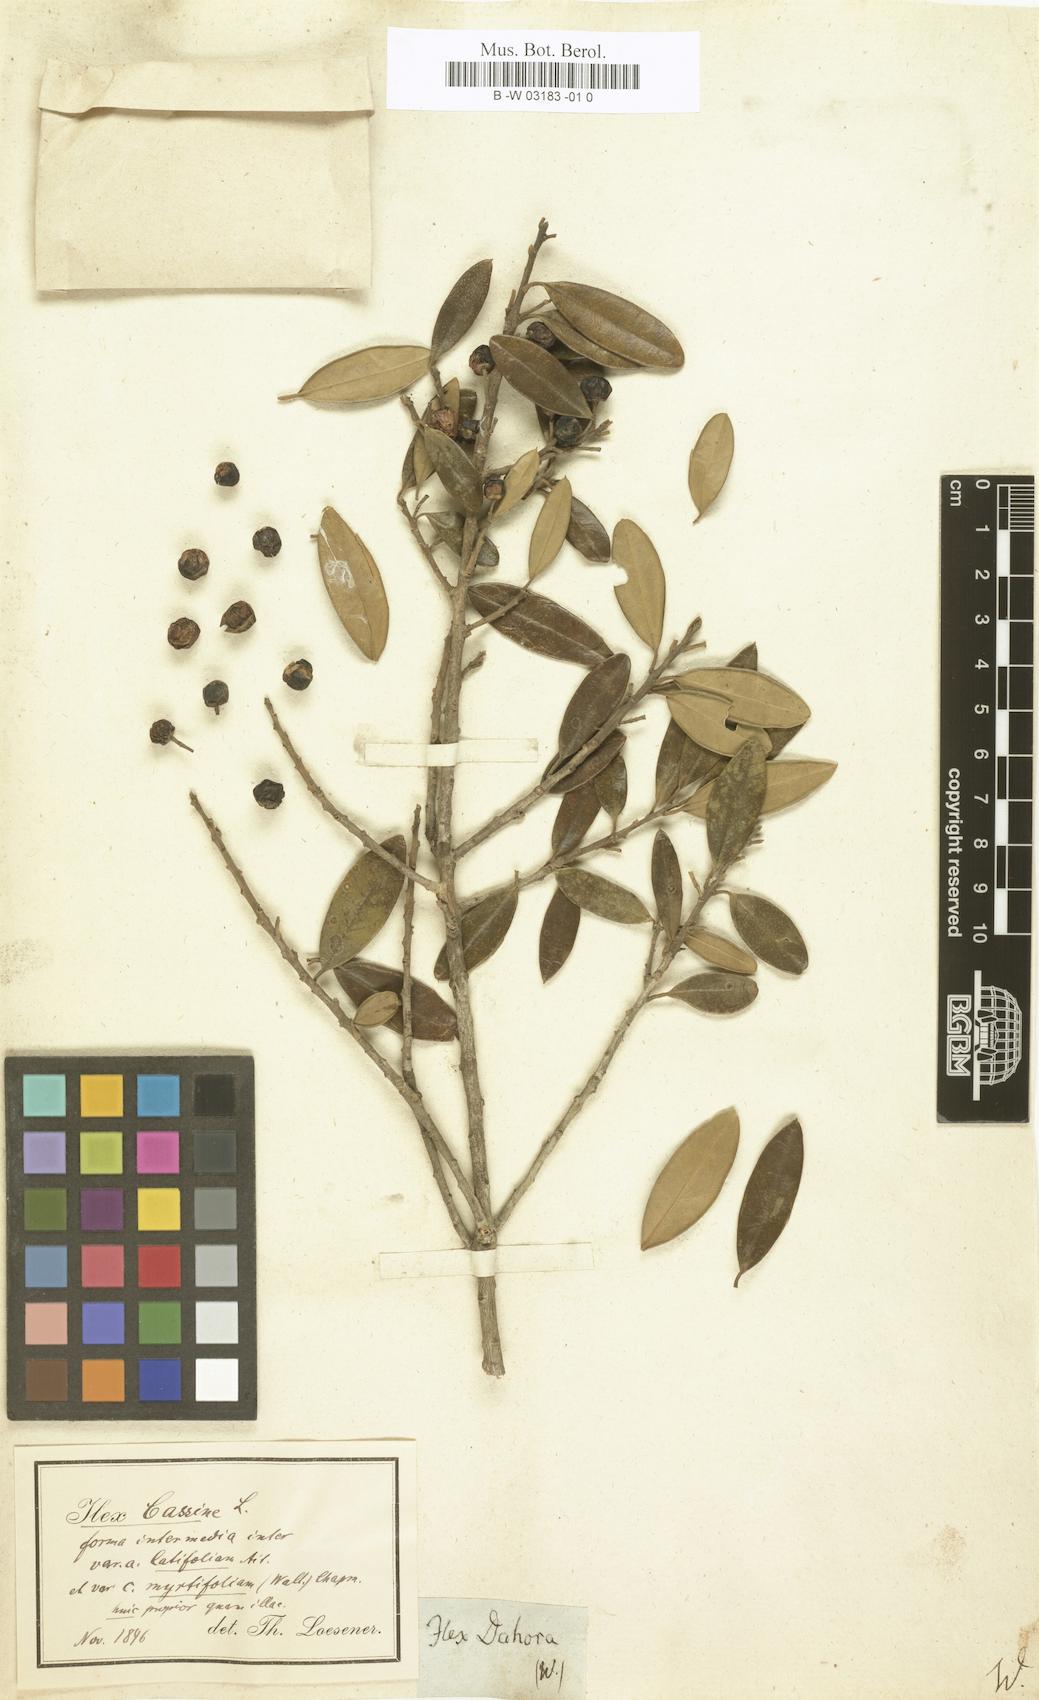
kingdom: Plantae
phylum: Tracheophyta
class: Magnoliopsida
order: Aquifoliales
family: Aquifoliaceae
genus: Ilex
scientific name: Ilex cassine
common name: Dahoon
